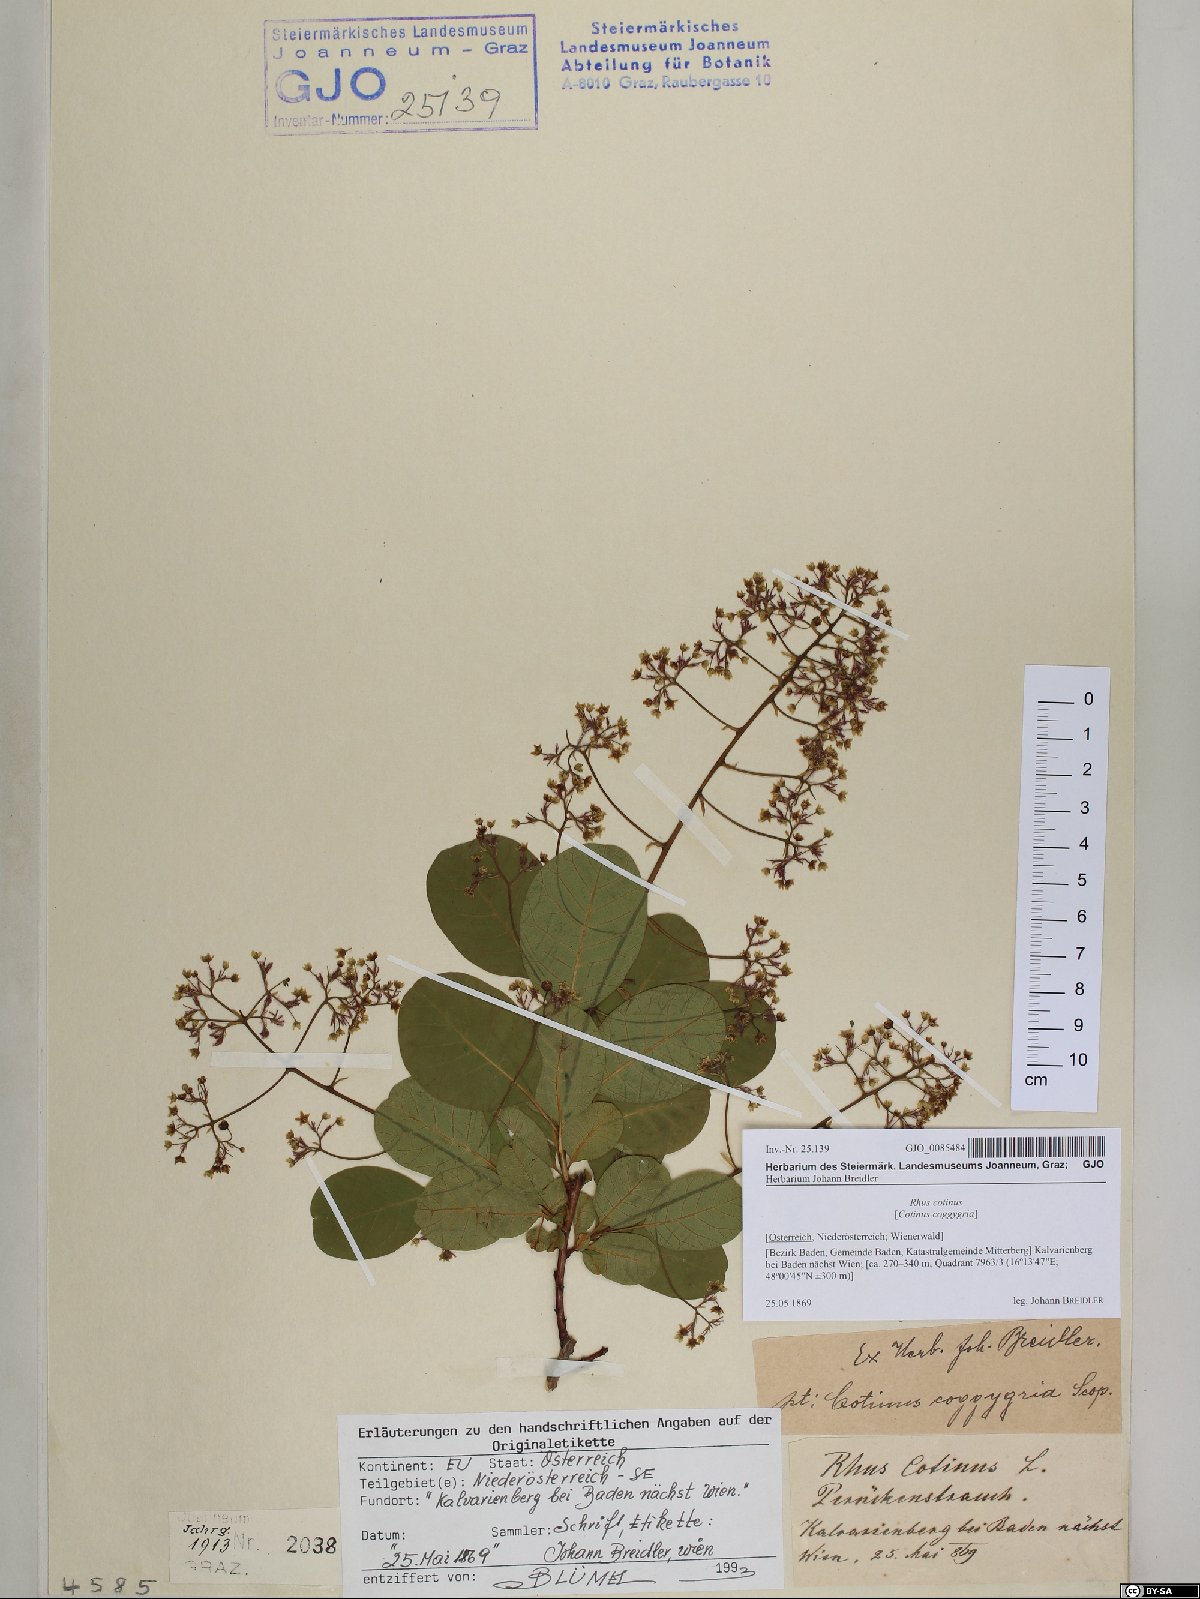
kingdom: Plantae
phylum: Tracheophyta
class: Magnoliopsida
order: Sapindales
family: Anacardiaceae
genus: Cotinus
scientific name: Cotinus coggygria
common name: Smoke-tree
